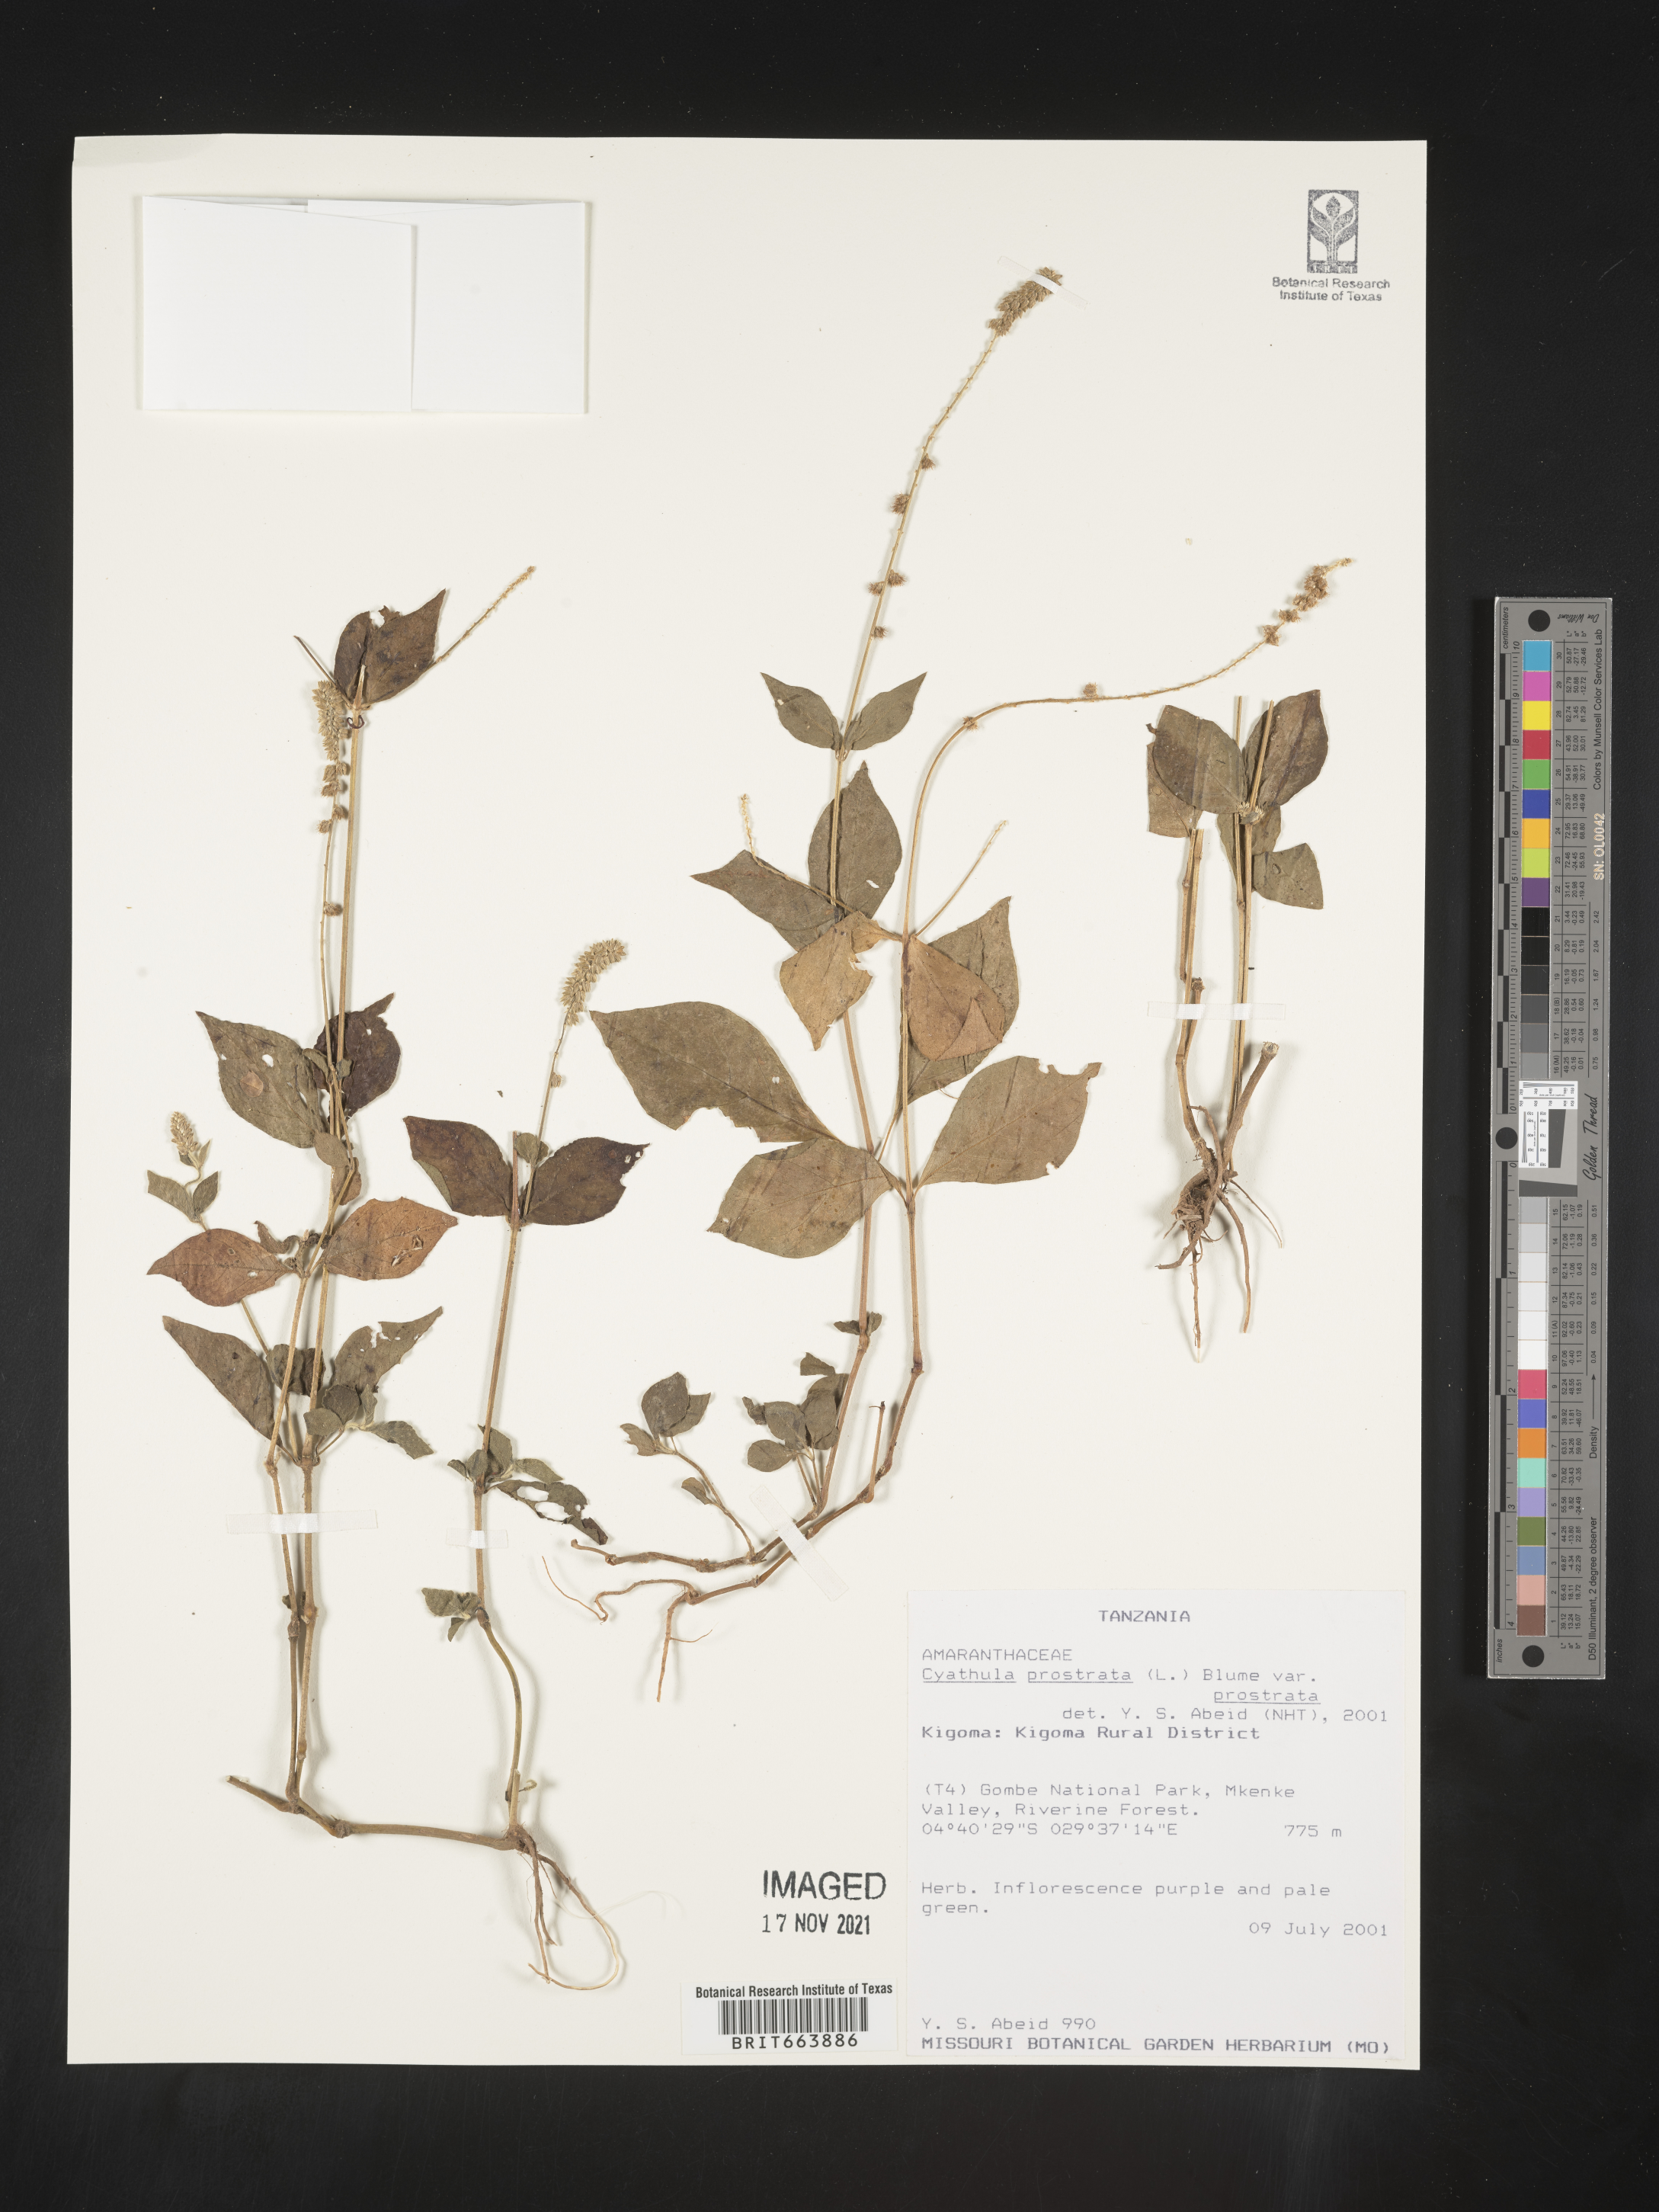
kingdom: Plantae
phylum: Tracheophyta
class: Magnoliopsida
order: Caryophyllales
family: Amaranthaceae
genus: Cyathula
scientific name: Cyathula
